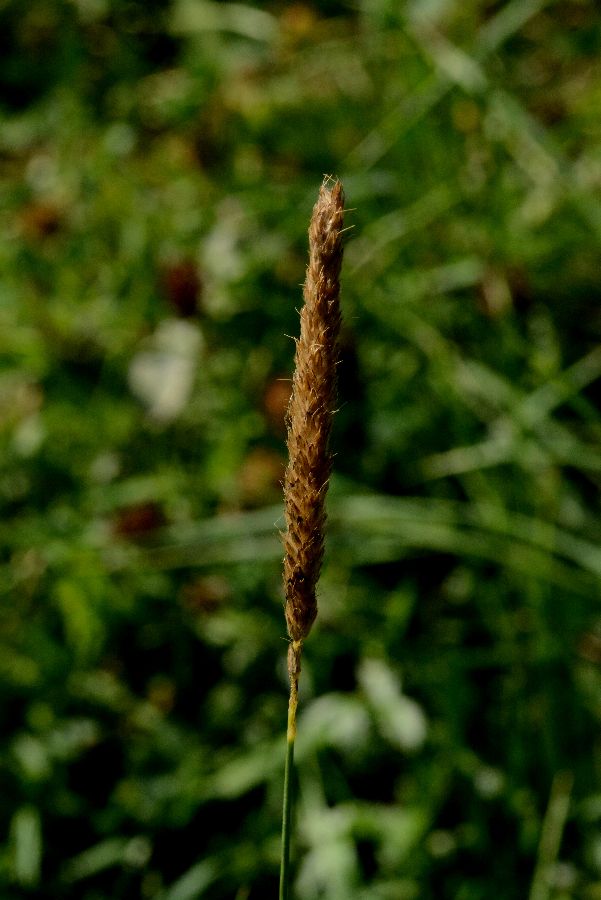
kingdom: Plantae
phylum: Tracheophyta
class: Liliopsida
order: Poales
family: Poaceae
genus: Alopecurus
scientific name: Alopecurus pratensis
